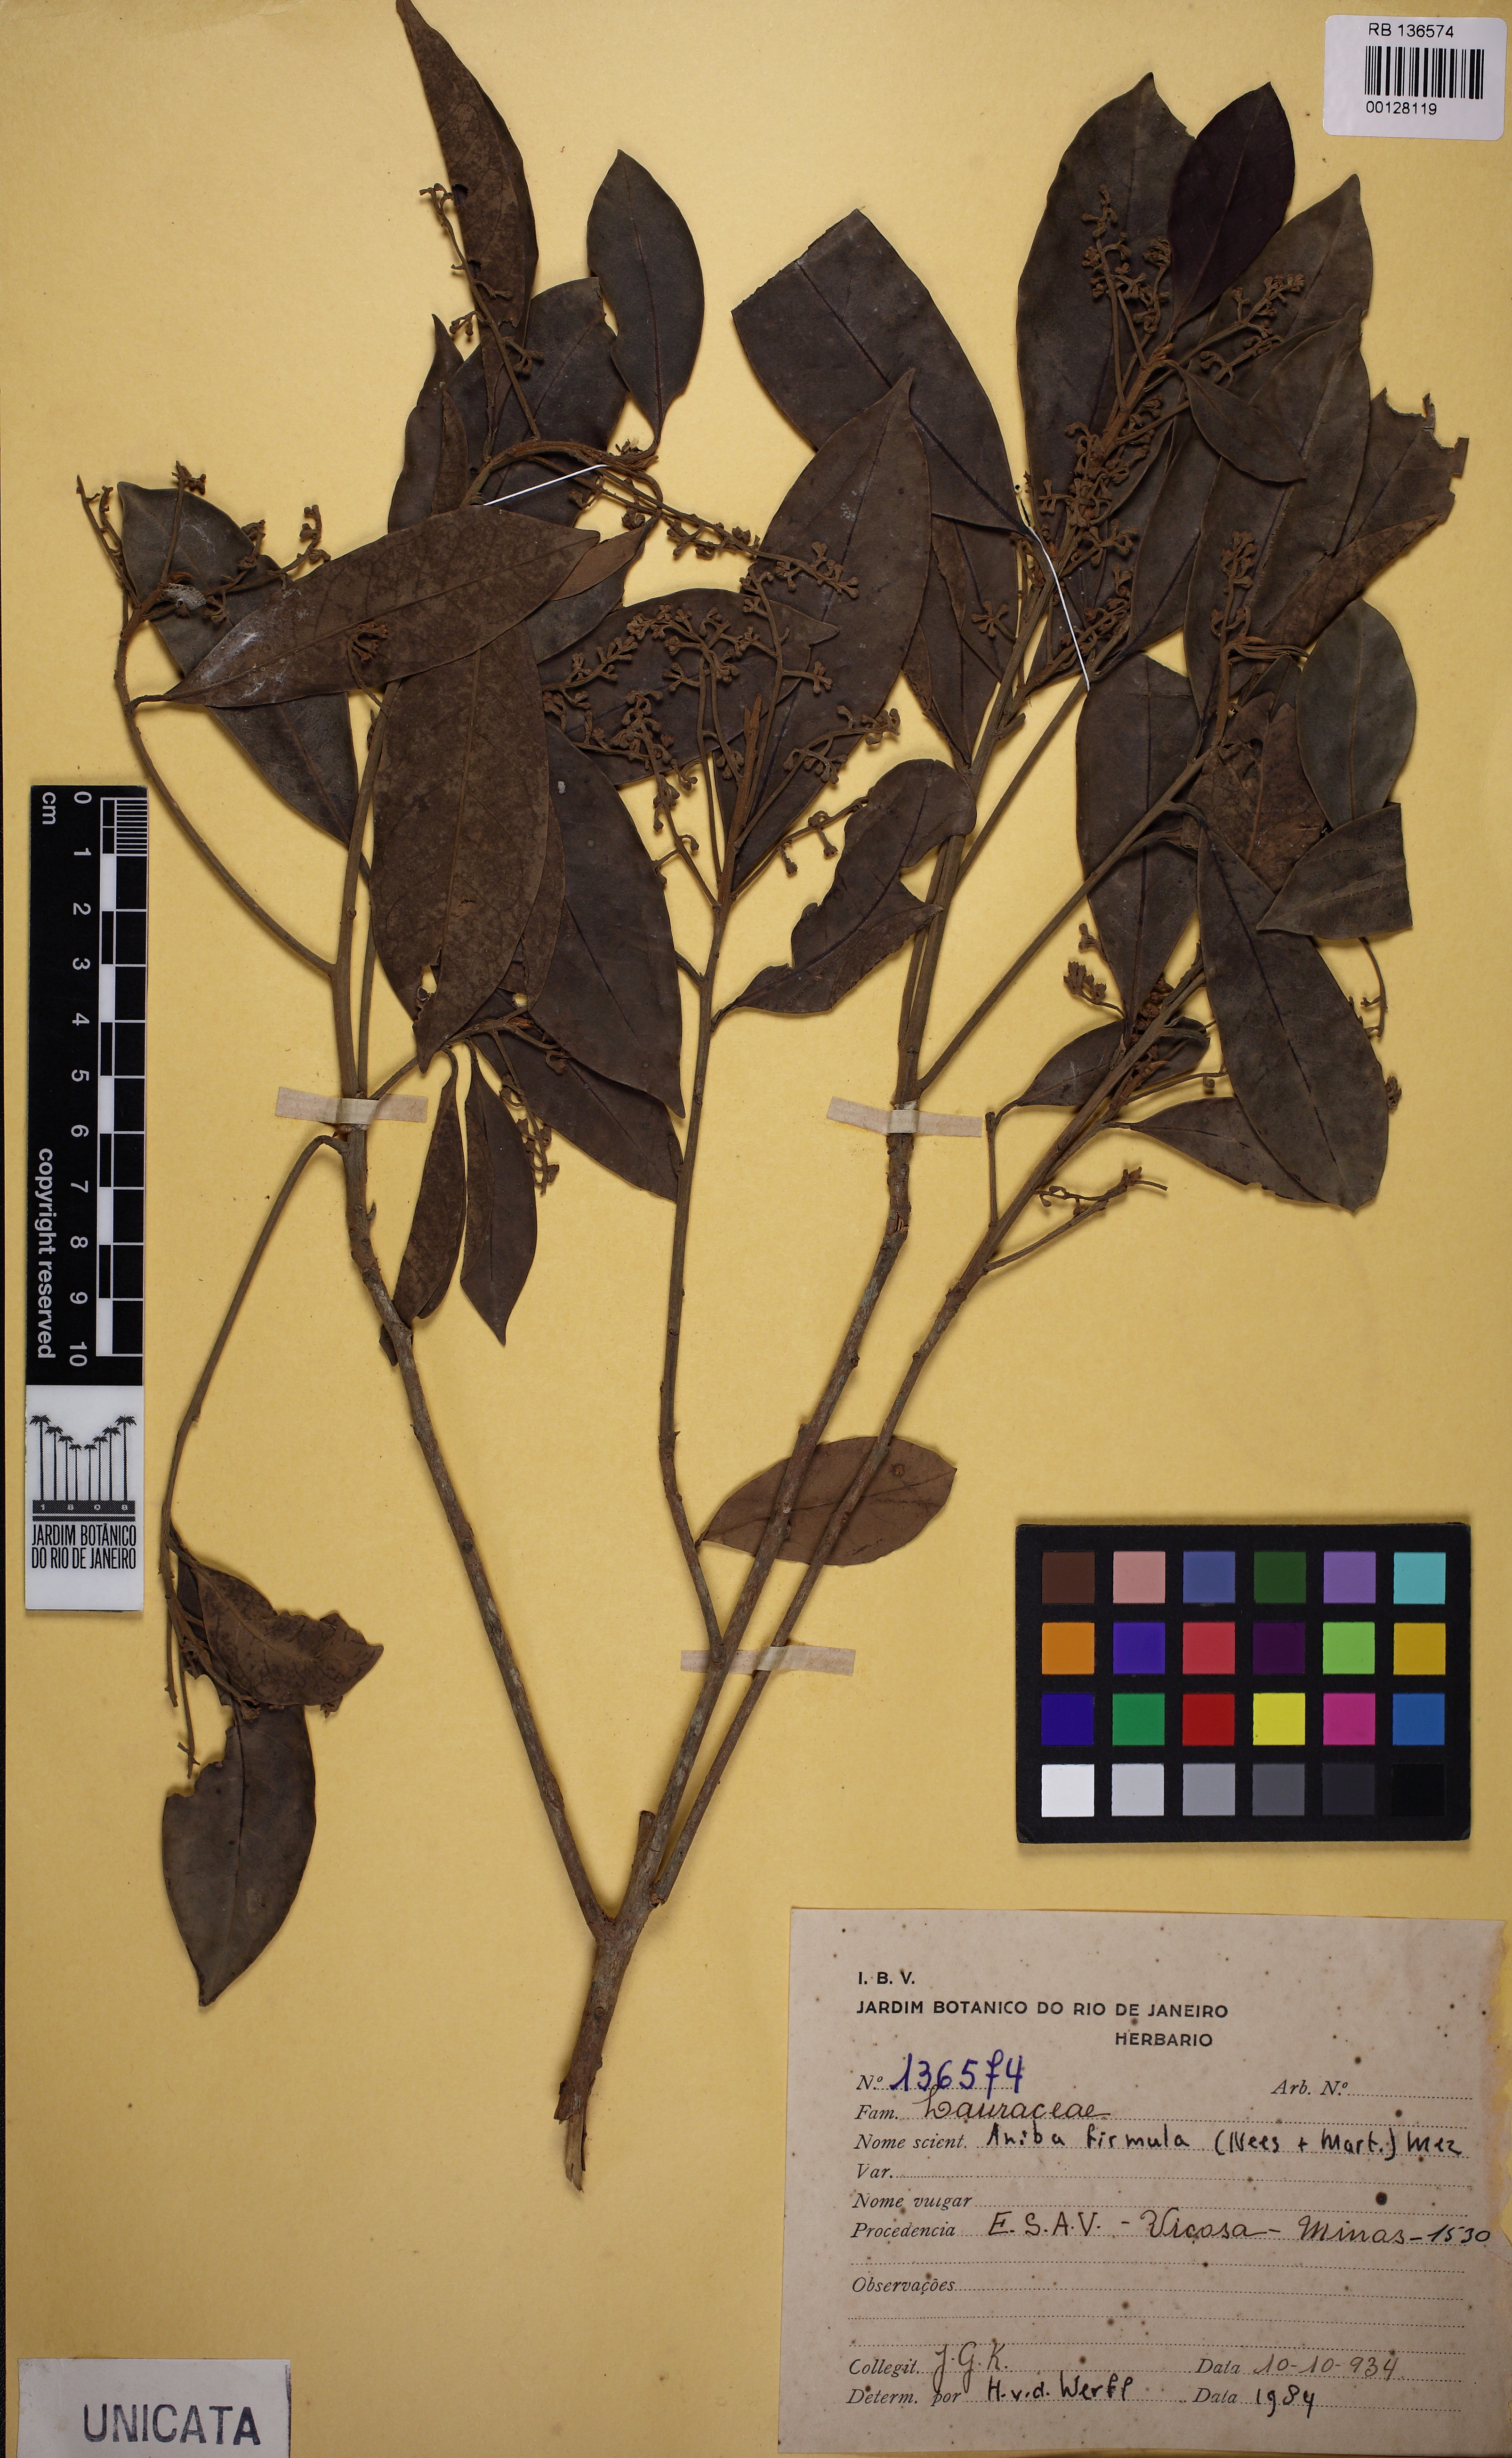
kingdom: Plantae
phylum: Tracheophyta
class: Magnoliopsida
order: Laurales
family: Lauraceae
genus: Aniba
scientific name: Aniba firmula
